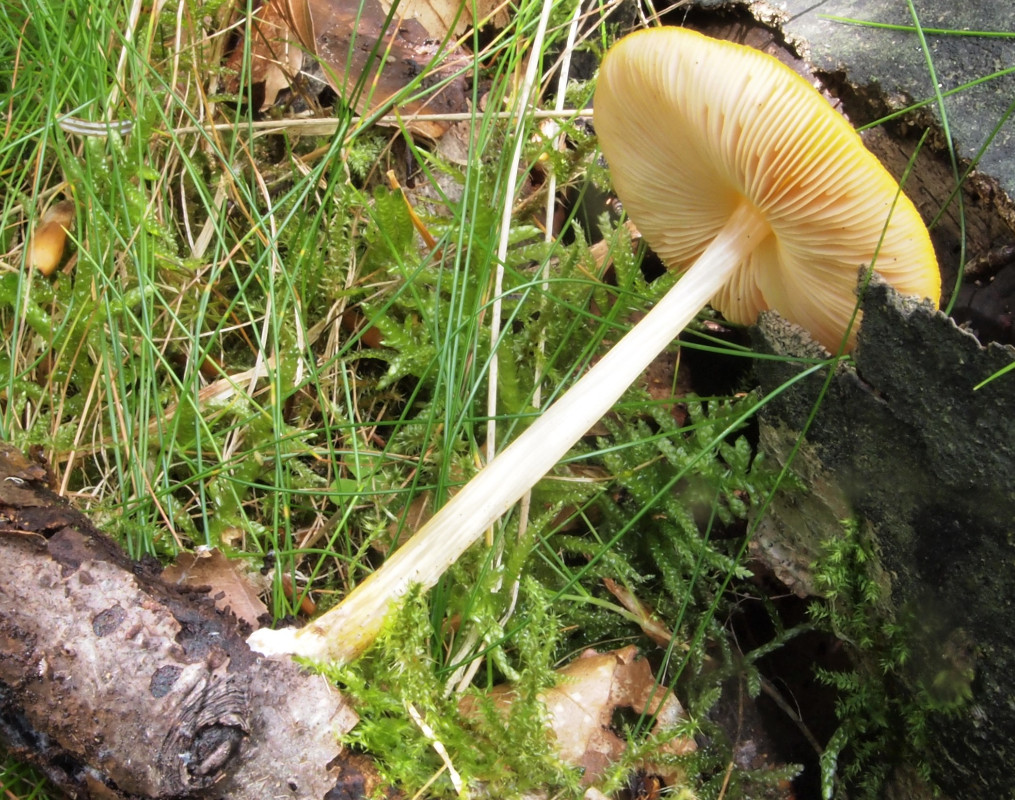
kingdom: Fungi
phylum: Basidiomycota
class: Agaricomycetes
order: Agaricales
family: Pluteaceae
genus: Pluteus
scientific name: Pluteus leoninus
